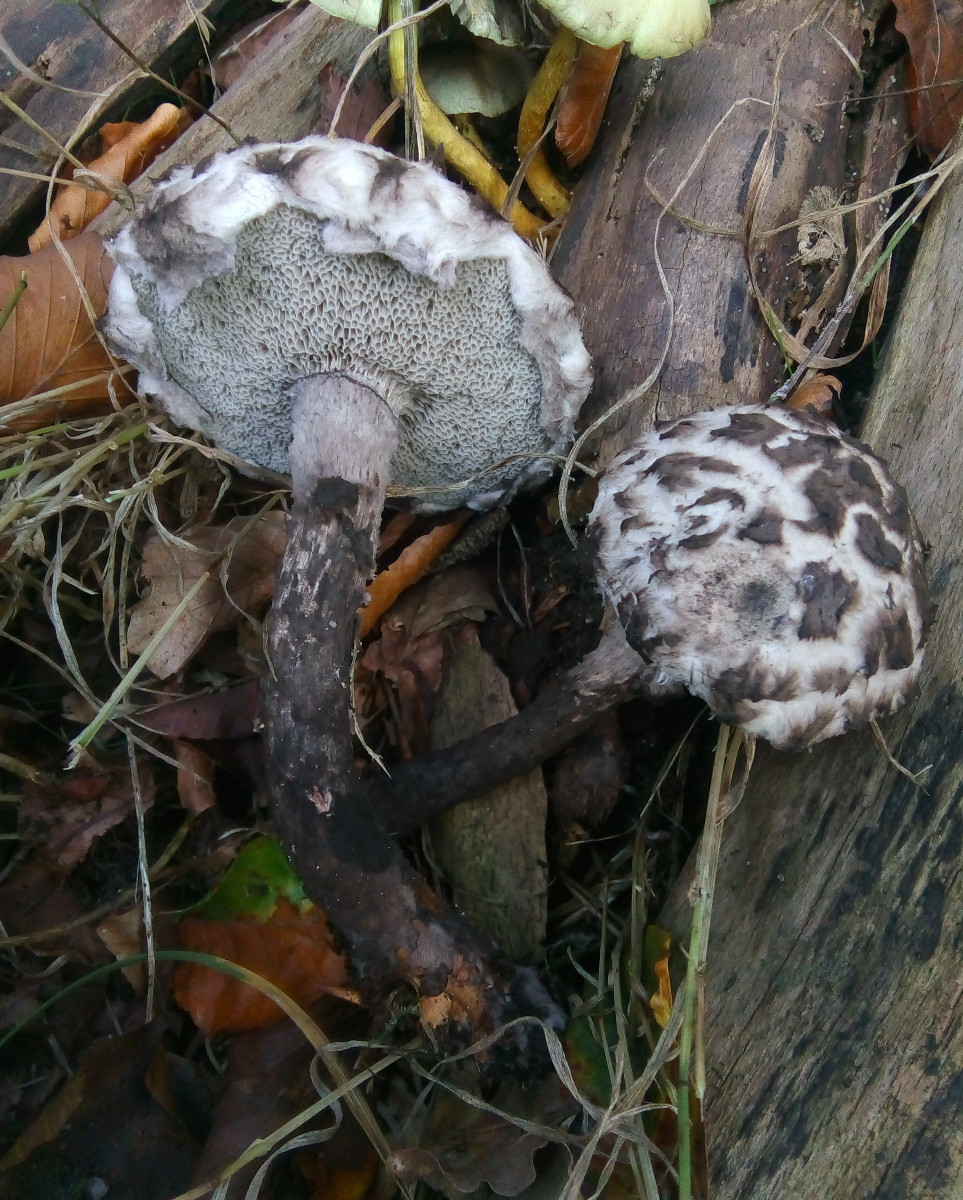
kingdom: Fungi
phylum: Basidiomycota
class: Agaricomycetes
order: Boletales
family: Boletaceae
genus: Strobilomyces
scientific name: Strobilomyces strobilaceus
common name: koglerørhat
